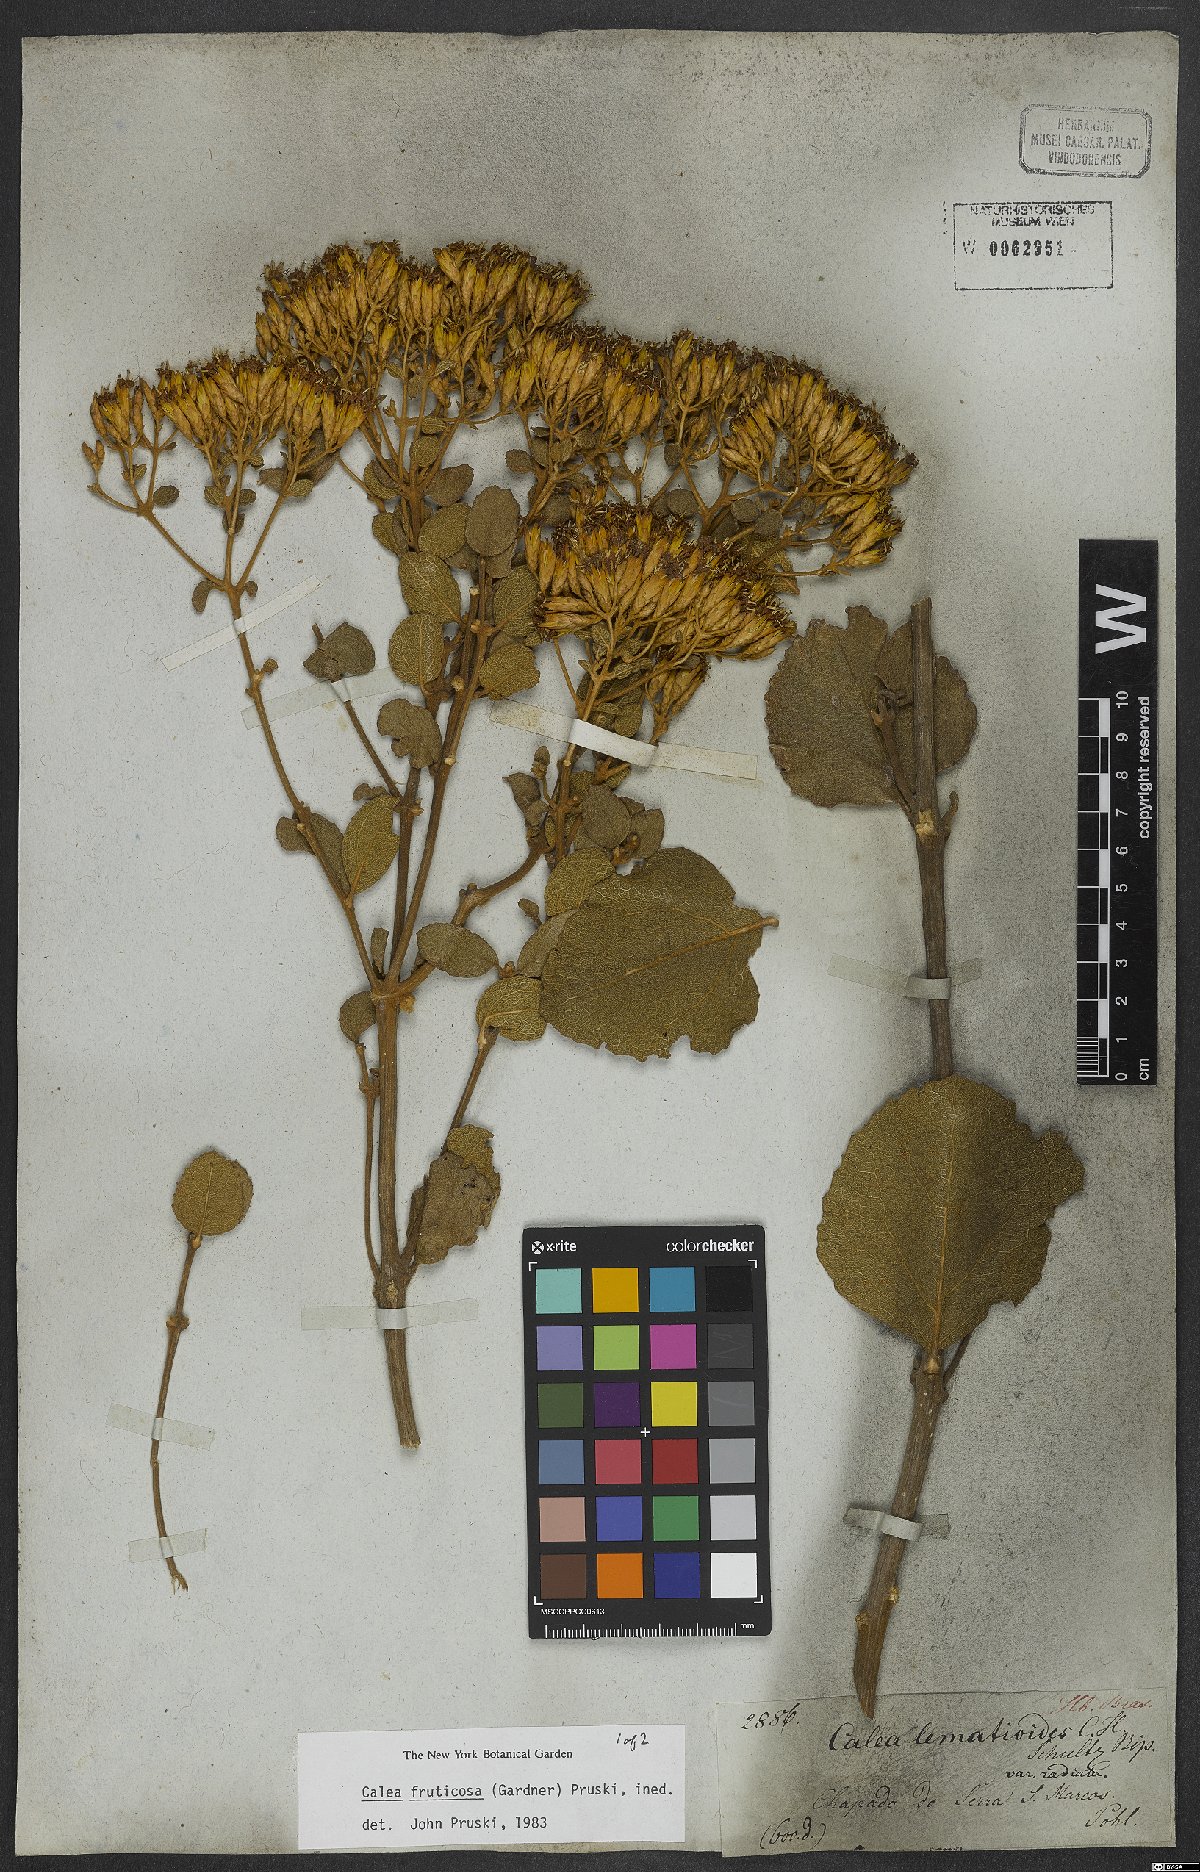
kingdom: Plantae
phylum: Tracheophyta
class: Magnoliopsida
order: Asterales
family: Asteraceae
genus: Calea
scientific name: Calea fruticosa
